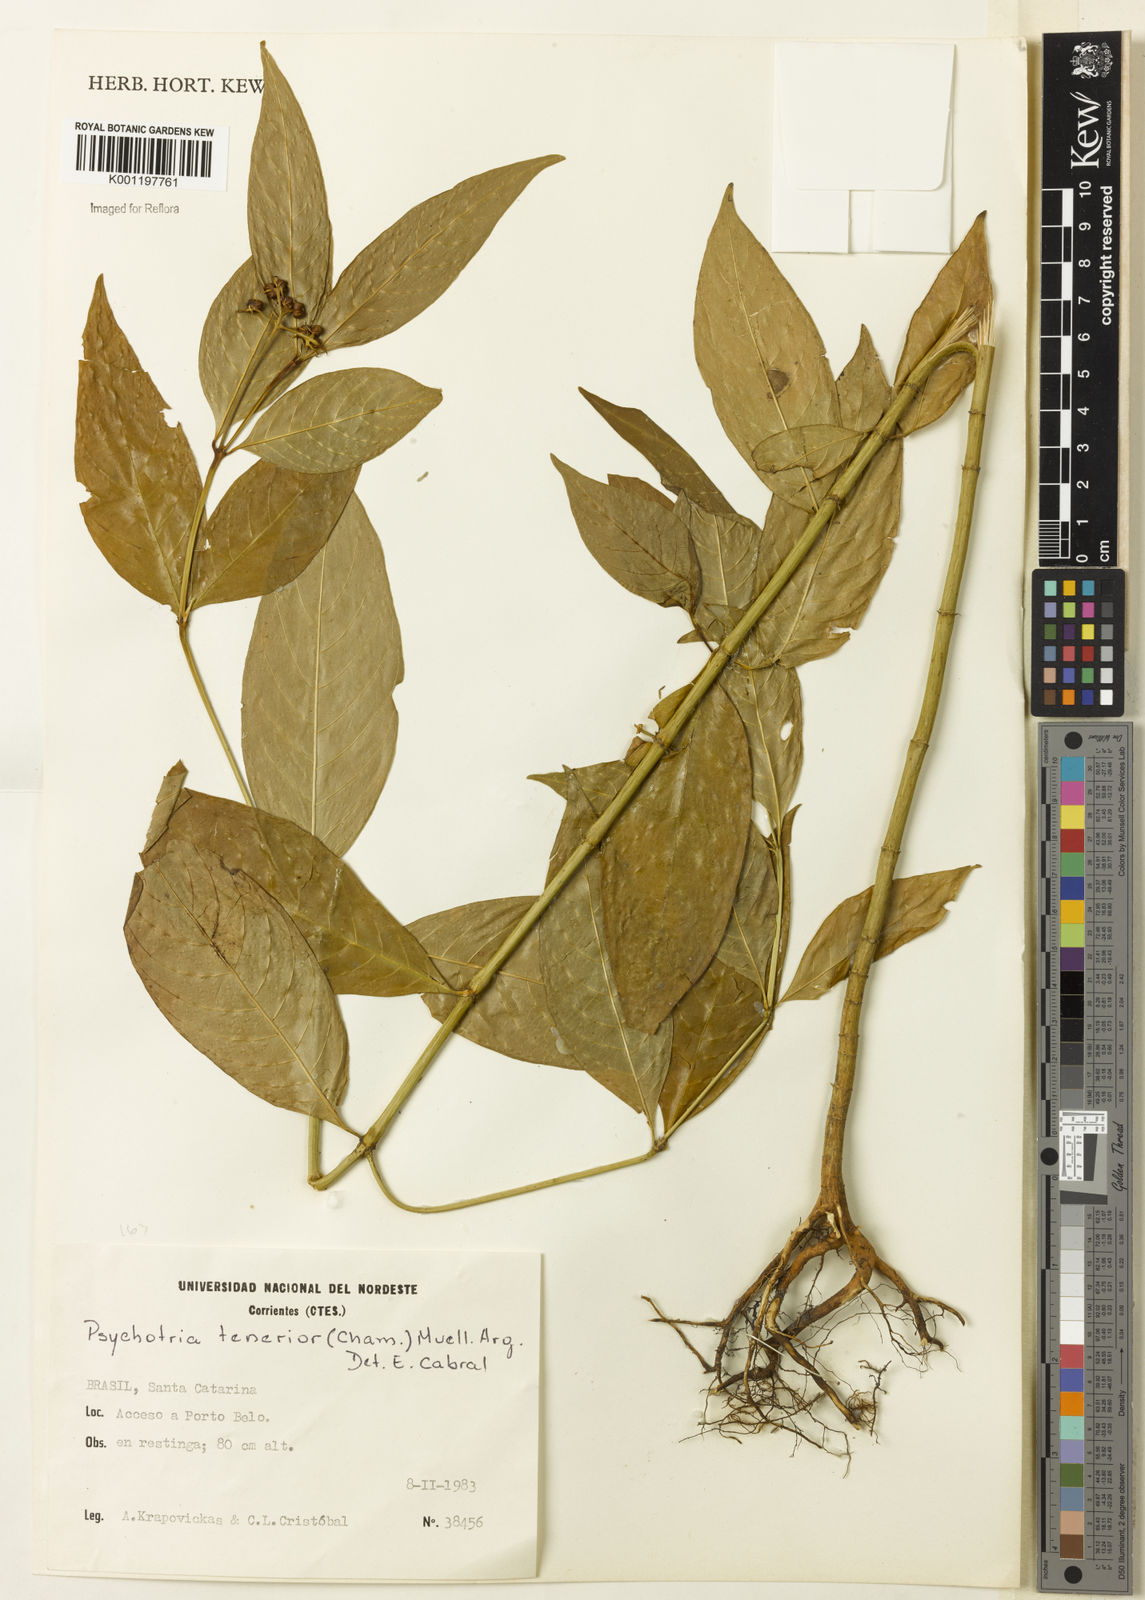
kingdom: Plantae
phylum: Tracheophyta
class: Magnoliopsida
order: Gentianales
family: Rubiaceae
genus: Psychotria
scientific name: Psychotria
